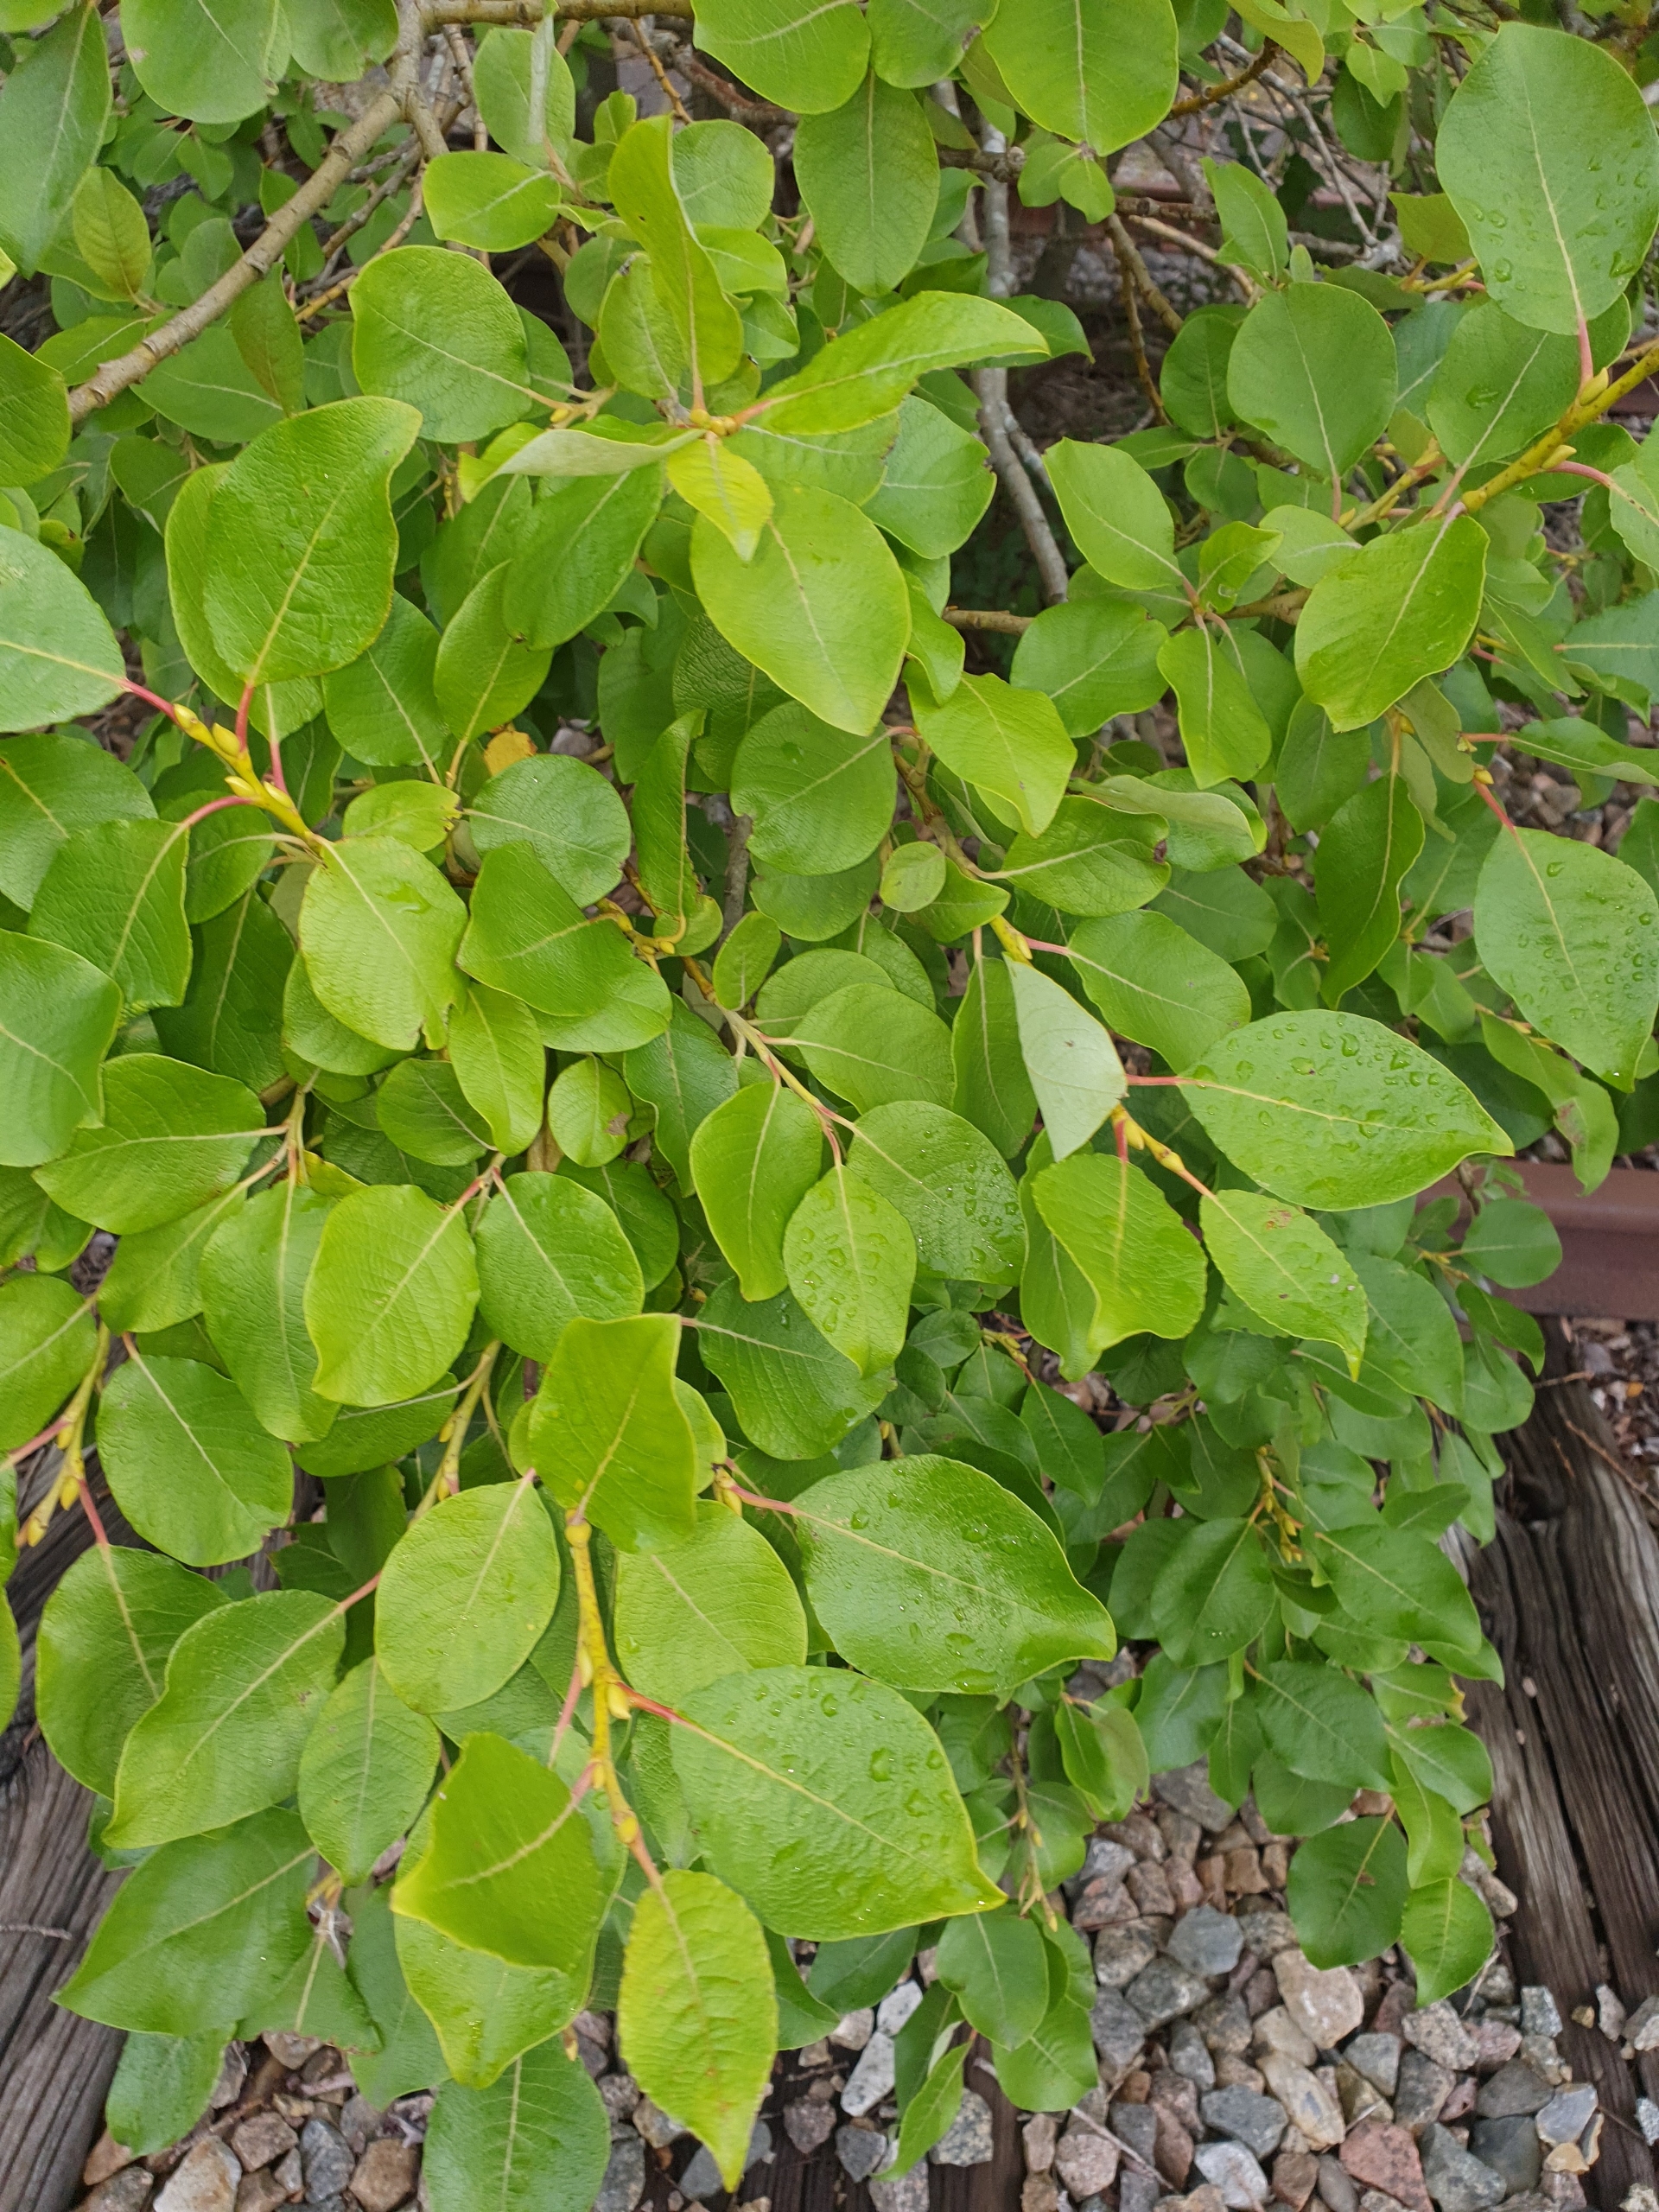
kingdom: Plantae
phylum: Tracheophyta
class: Magnoliopsida
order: Malpighiales
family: Salicaceae
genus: Salix
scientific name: Salix caprea
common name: Selje-pil
